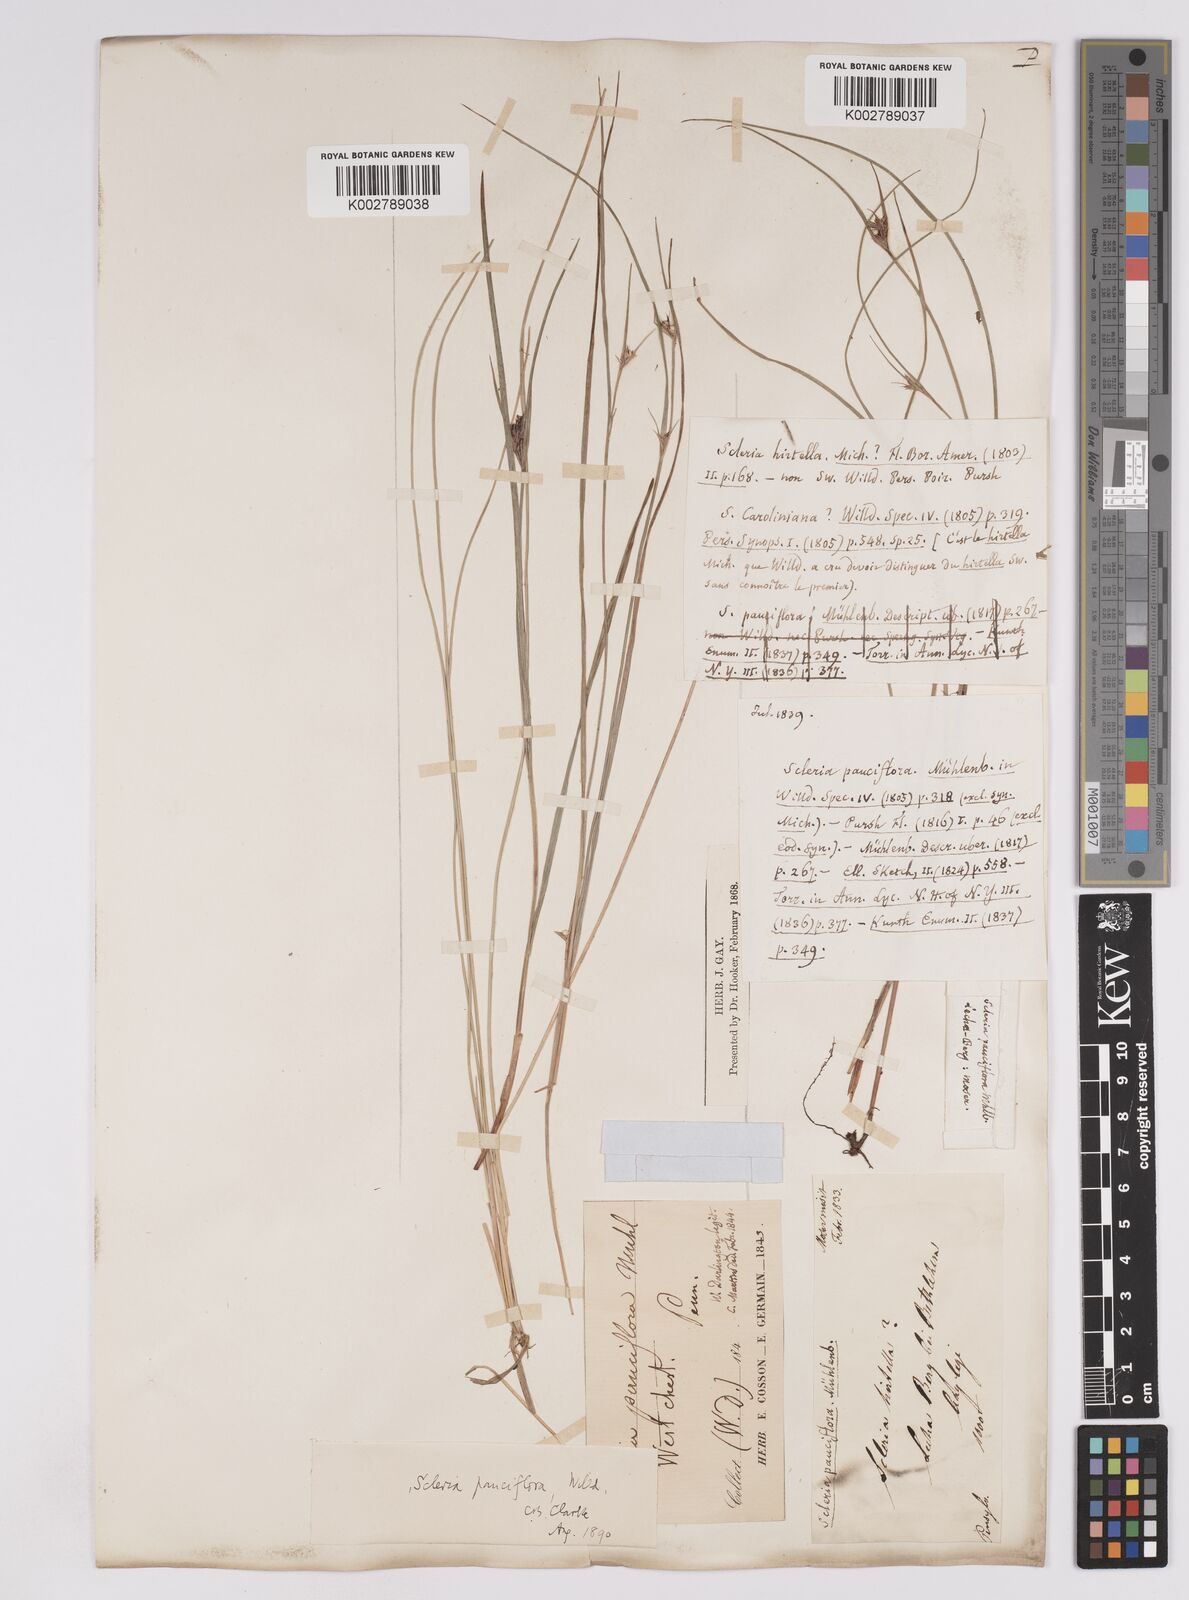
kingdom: Plantae
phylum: Tracheophyta
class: Liliopsida
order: Poales
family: Cyperaceae
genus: Scleria
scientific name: Scleria pauciflora
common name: Few-flowered nutrush
